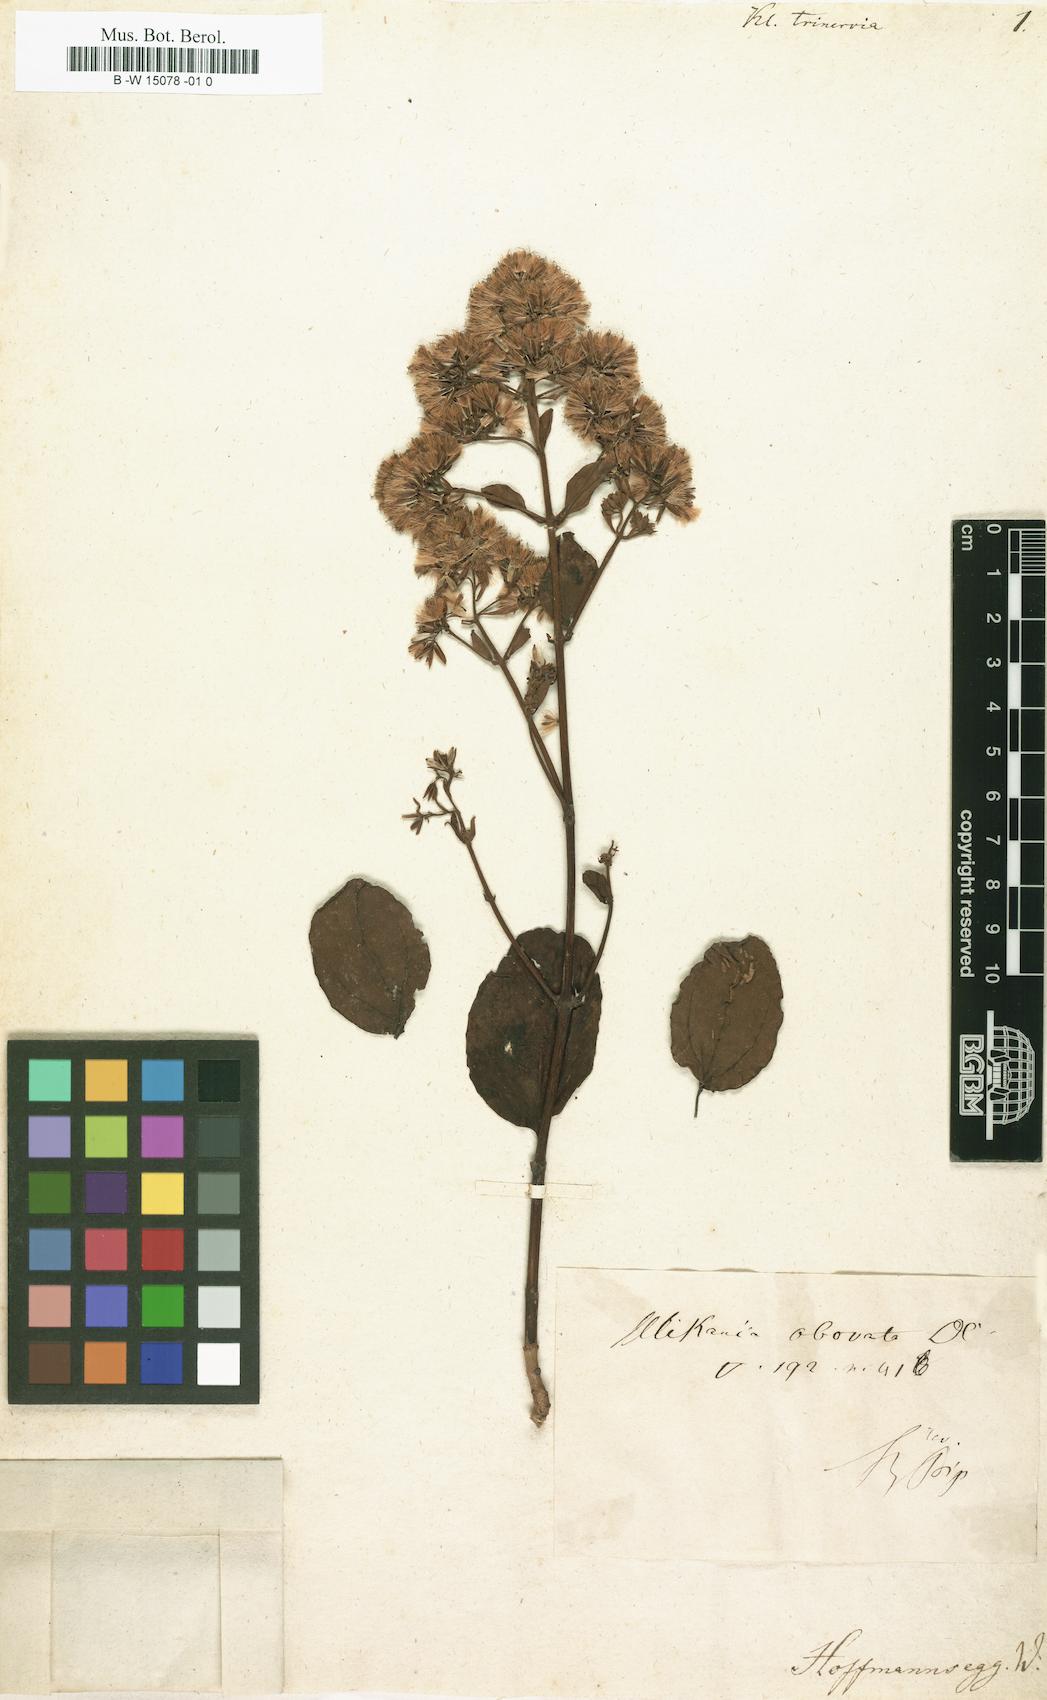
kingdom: Plantae
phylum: Tracheophyta
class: Magnoliopsida
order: Asterales
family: Asteraceae
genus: Kleinia
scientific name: Kleinia
